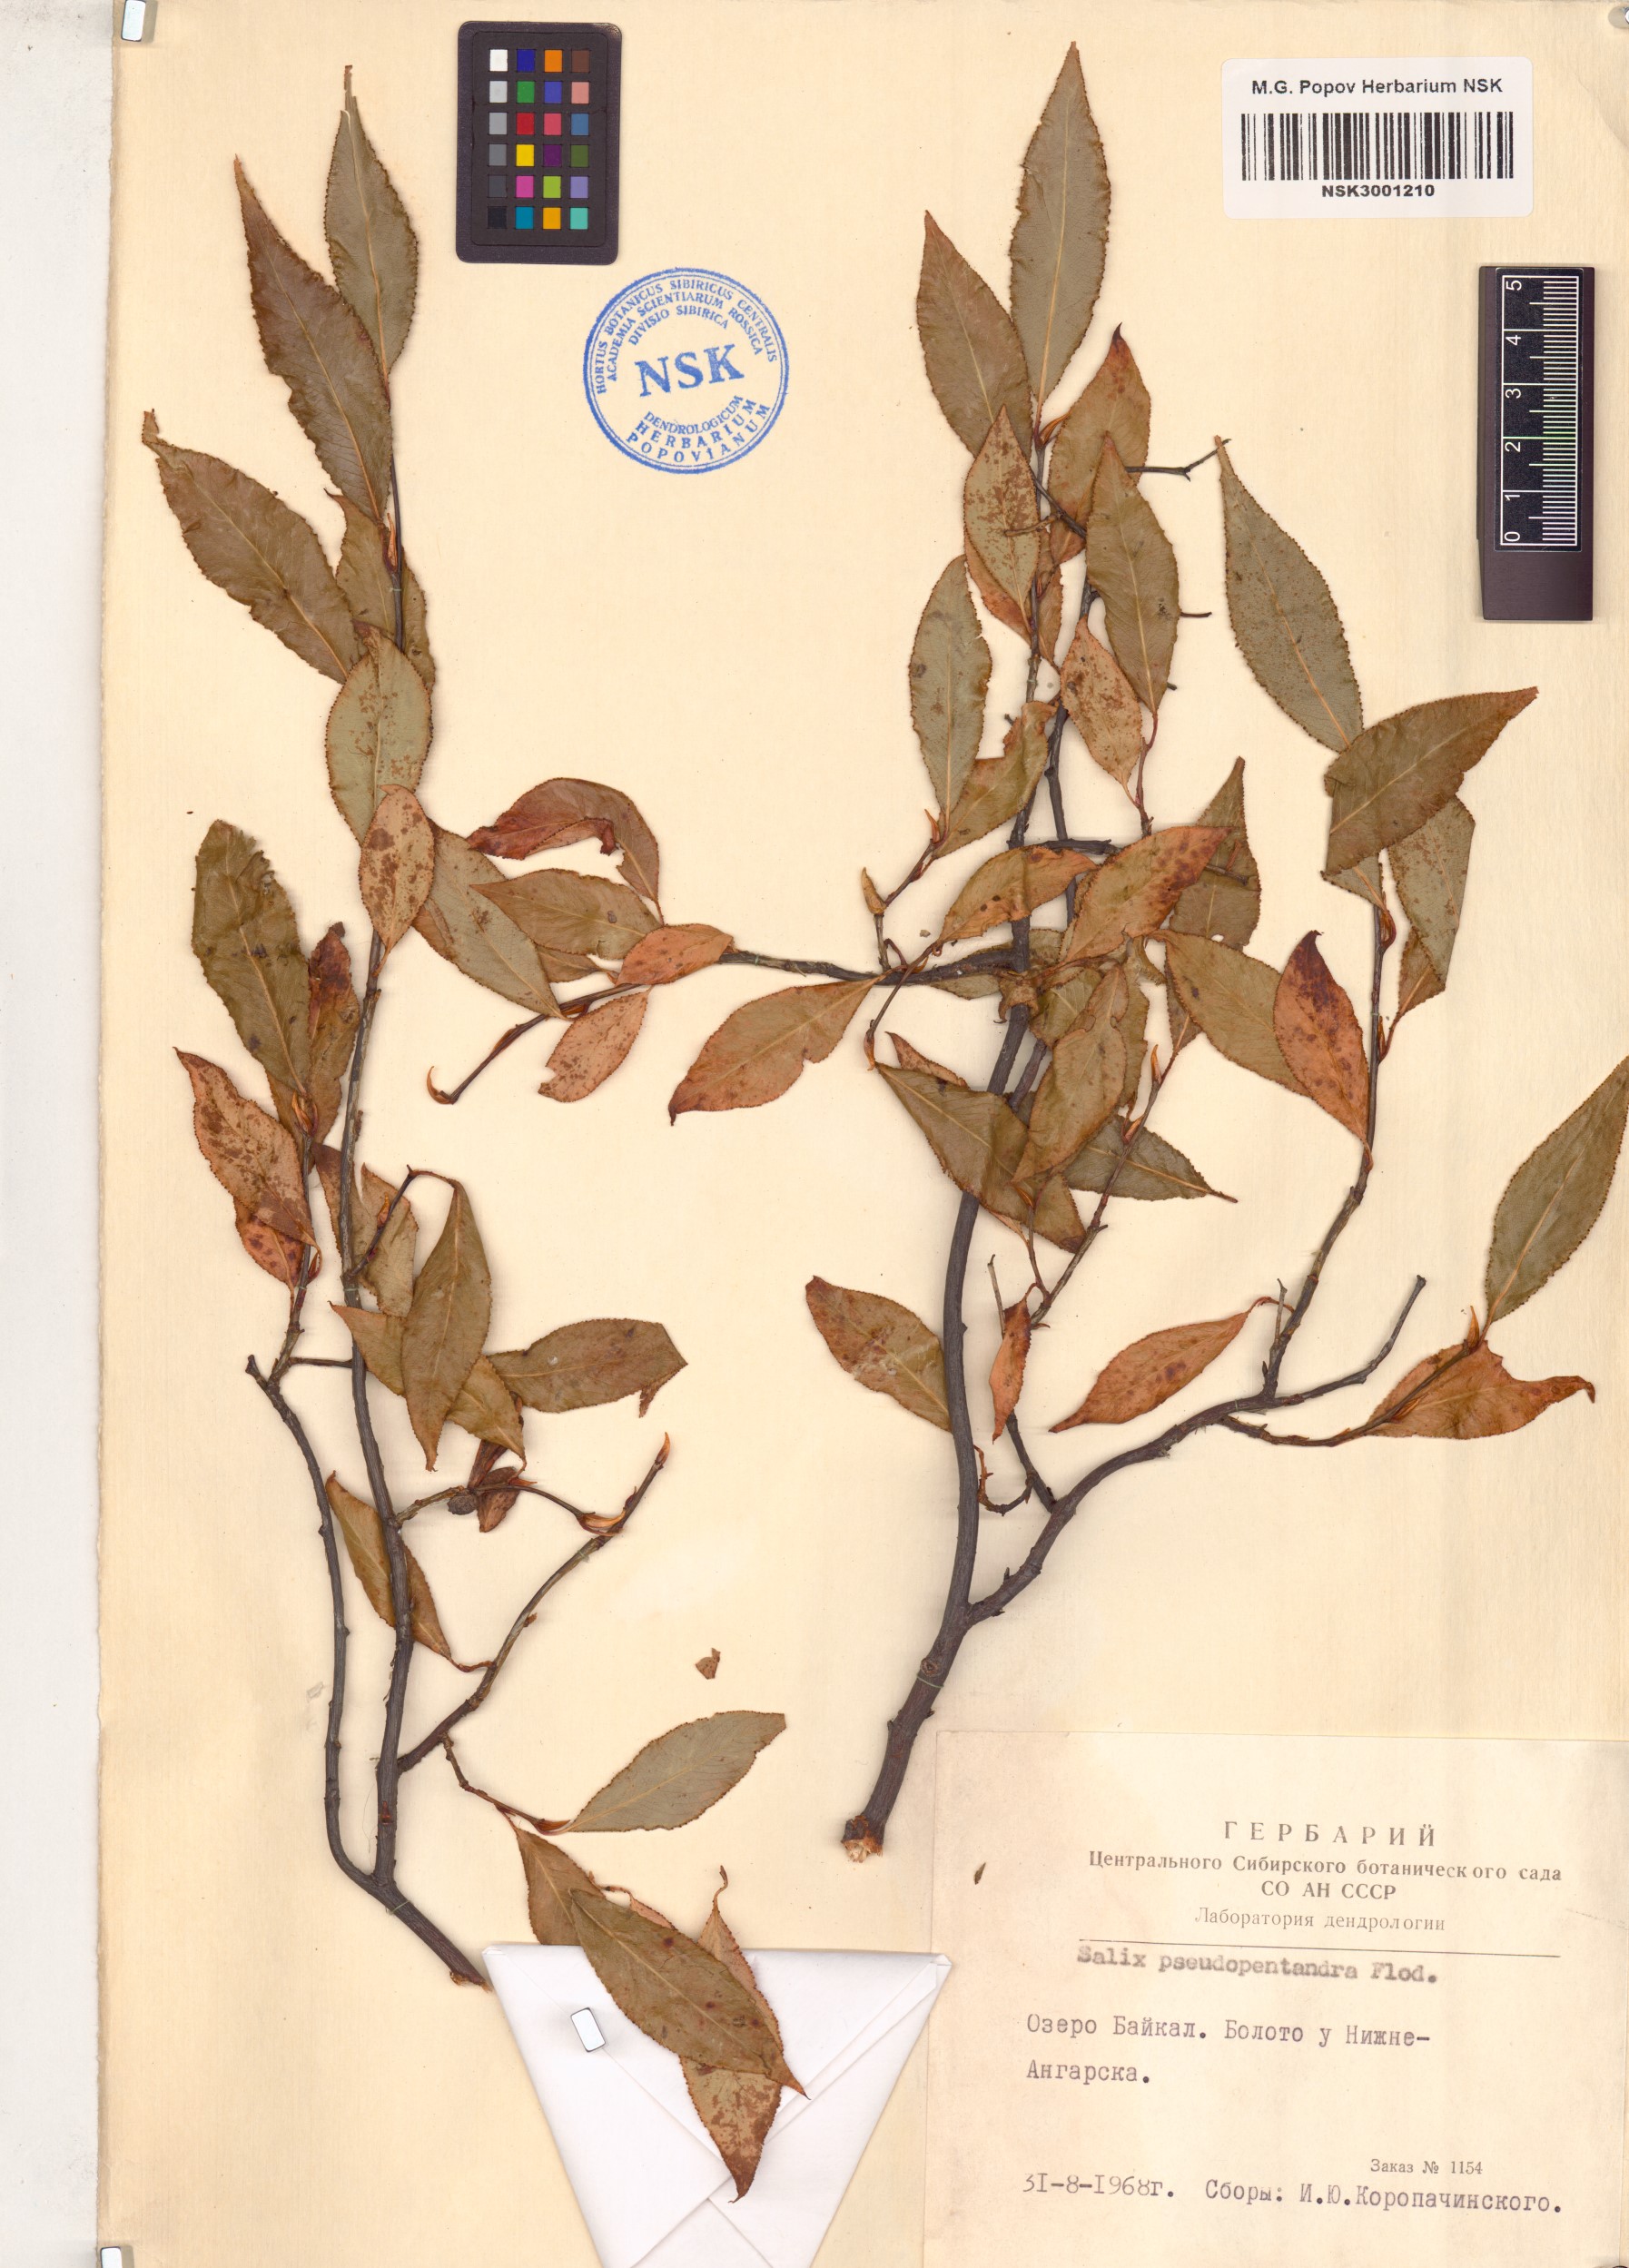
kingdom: Plantae
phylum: Tracheophyta
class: Magnoliopsida
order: Malpighiales
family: Salicaceae
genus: Salix
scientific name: Salix pseudopentandra
